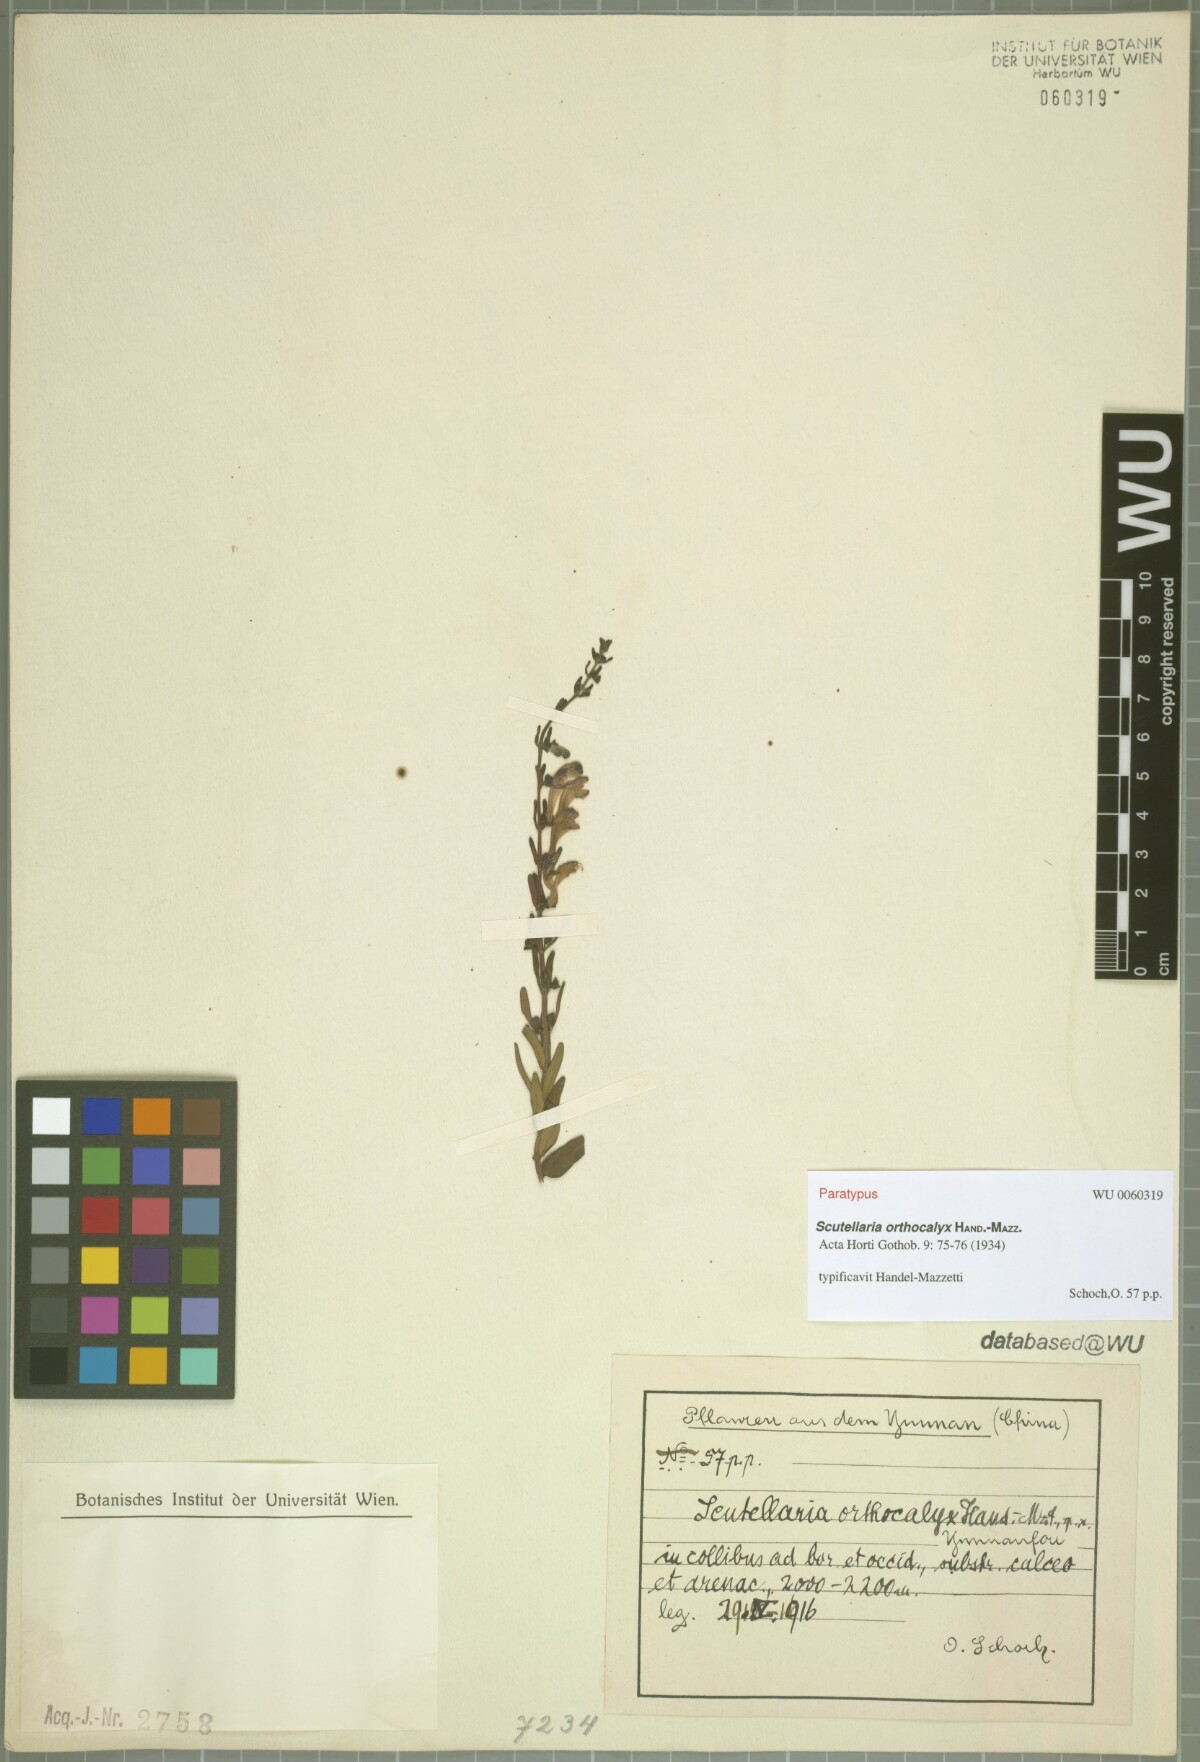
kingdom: Plantae
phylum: Tracheophyta
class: Magnoliopsida
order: Lamiales
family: Lamiaceae
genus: Scutellaria
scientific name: Scutellaria orthocalyx
